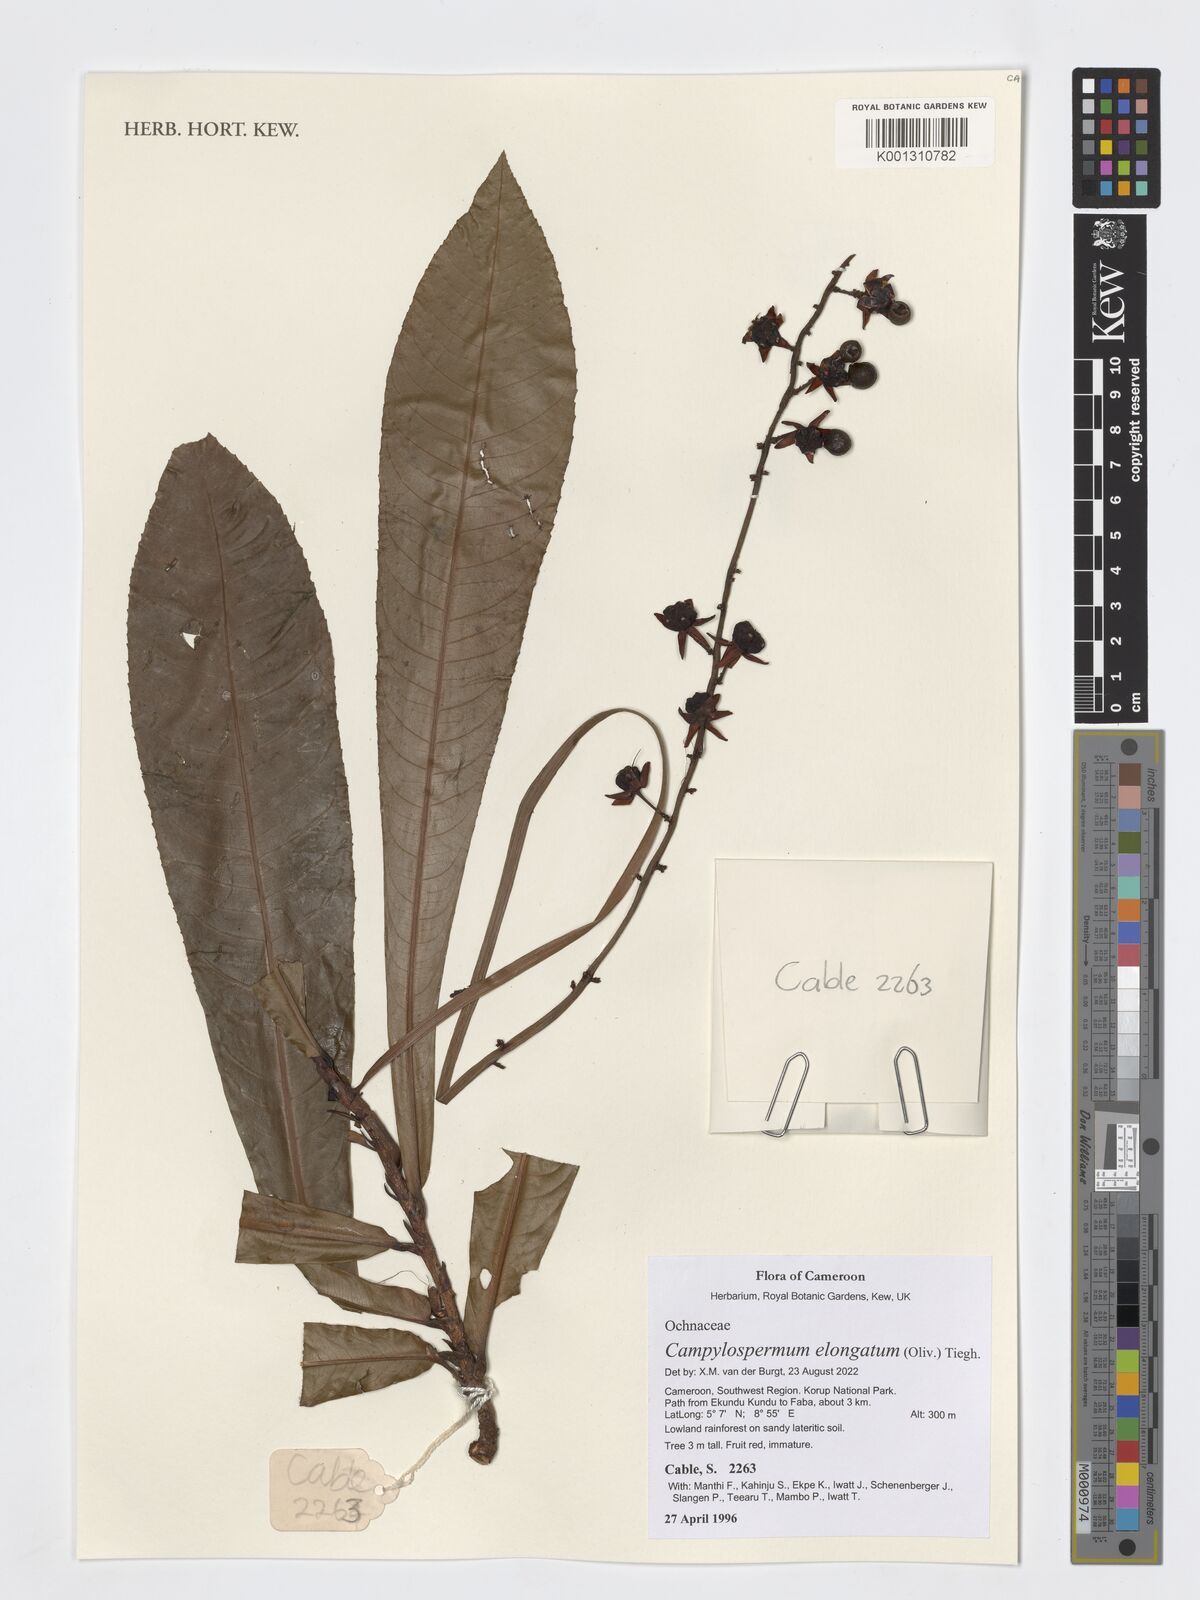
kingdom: Plantae
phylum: Tracheophyta
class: Magnoliopsida
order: Malpighiales
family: Ochnaceae
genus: Gomphia
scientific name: Gomphia elongata
